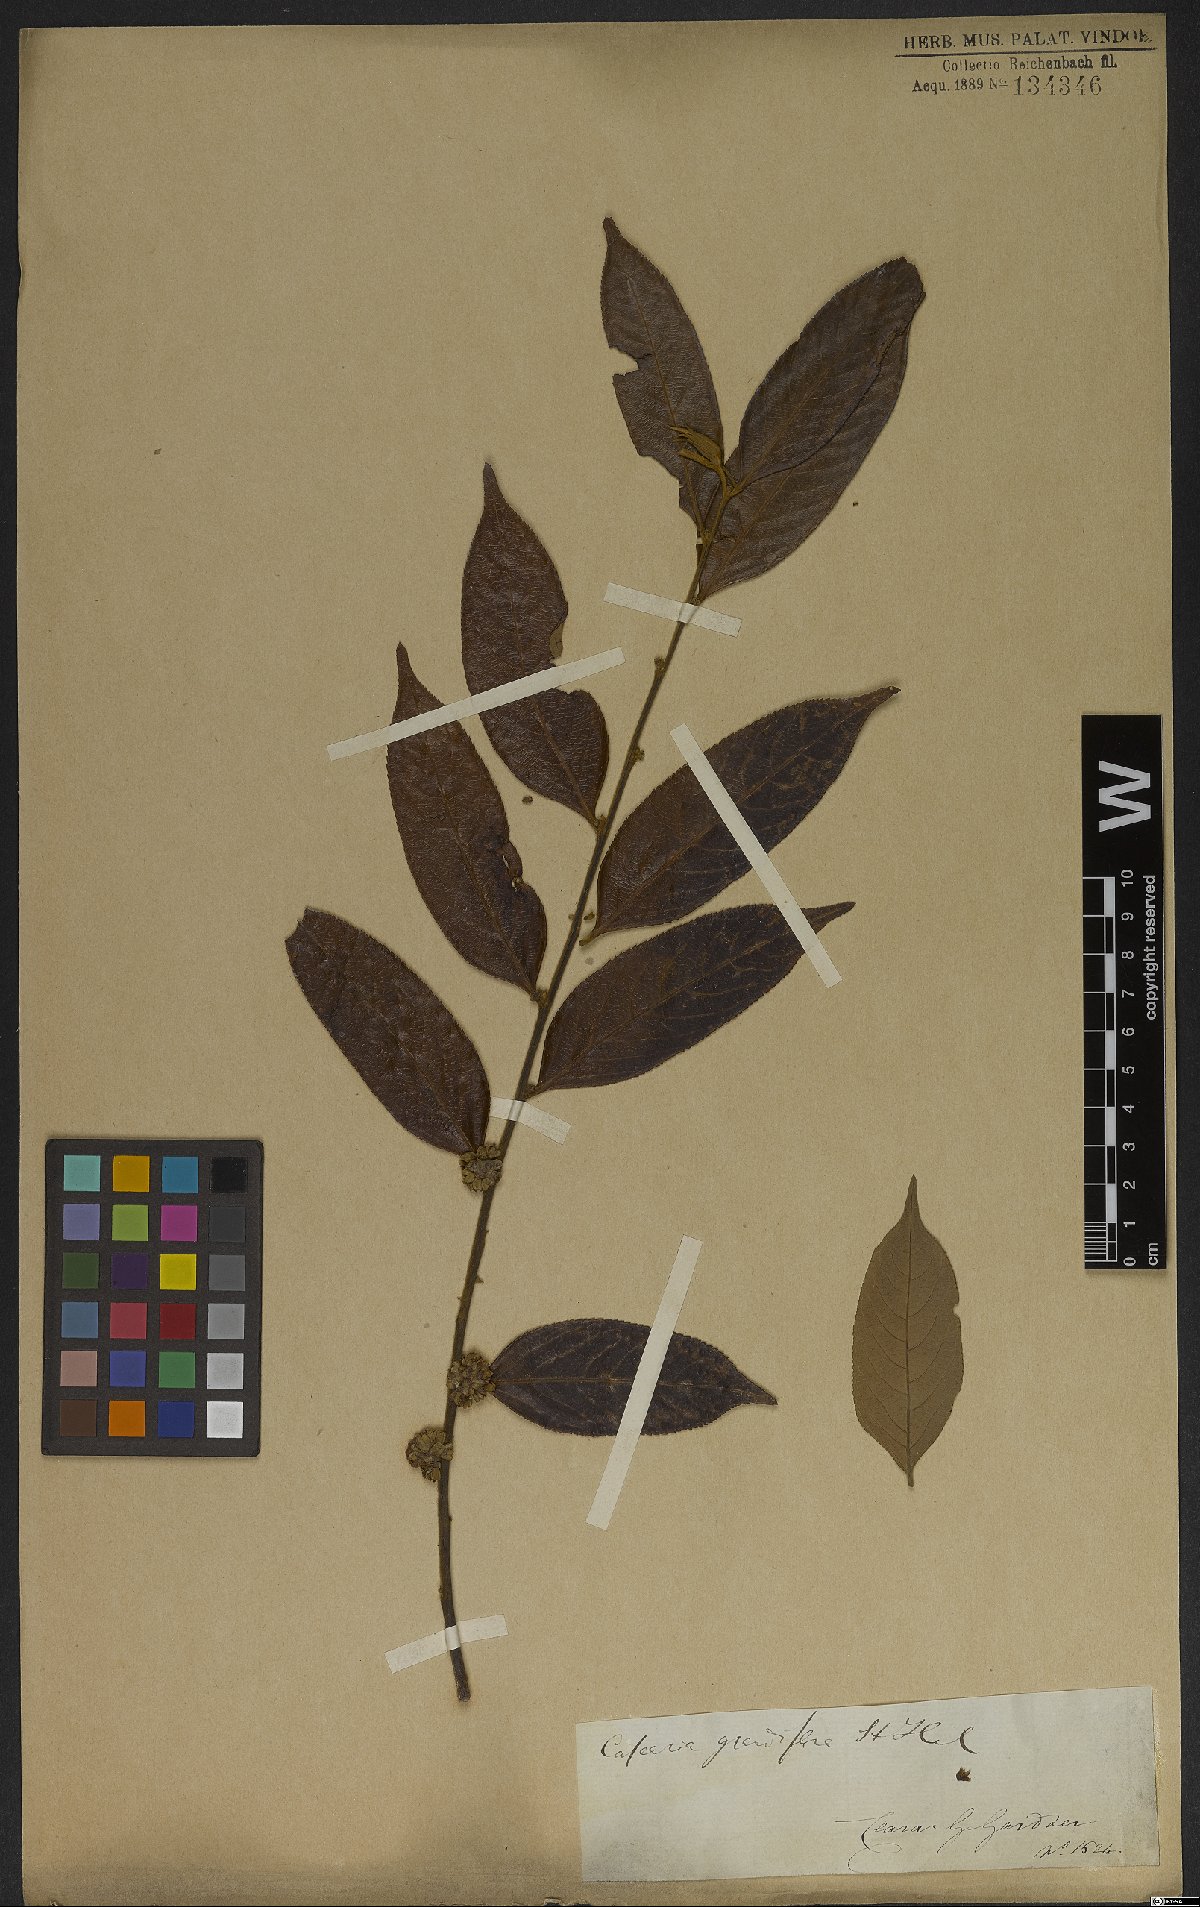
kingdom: Plantae
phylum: Tracheophyta
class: Magnoliopsida
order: Malpighiales
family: Salicaceae
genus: Casearia
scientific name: Casearia grandiflora
